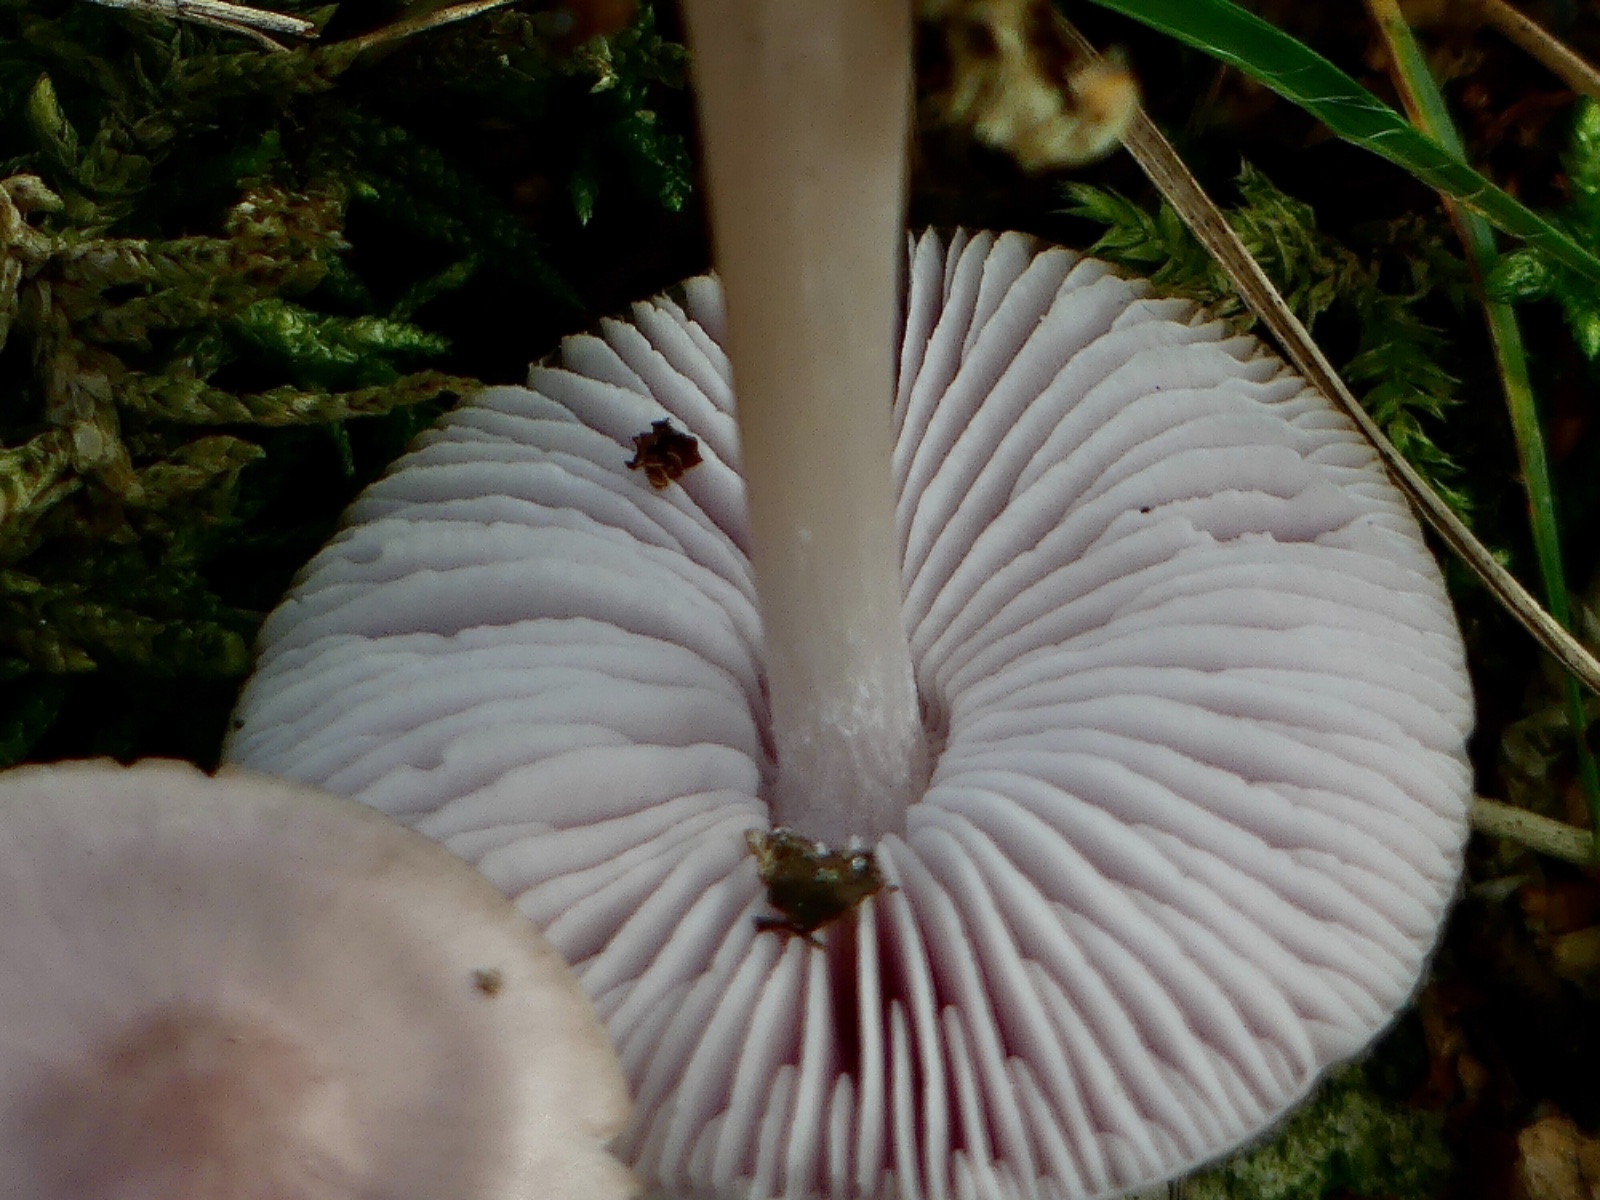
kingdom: Fungi
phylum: Basidiomycota
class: Agaricomycetes
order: Agaricales
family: Mycenaceae
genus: Mycena
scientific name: Mycena rosea
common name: rosa huesvamp
